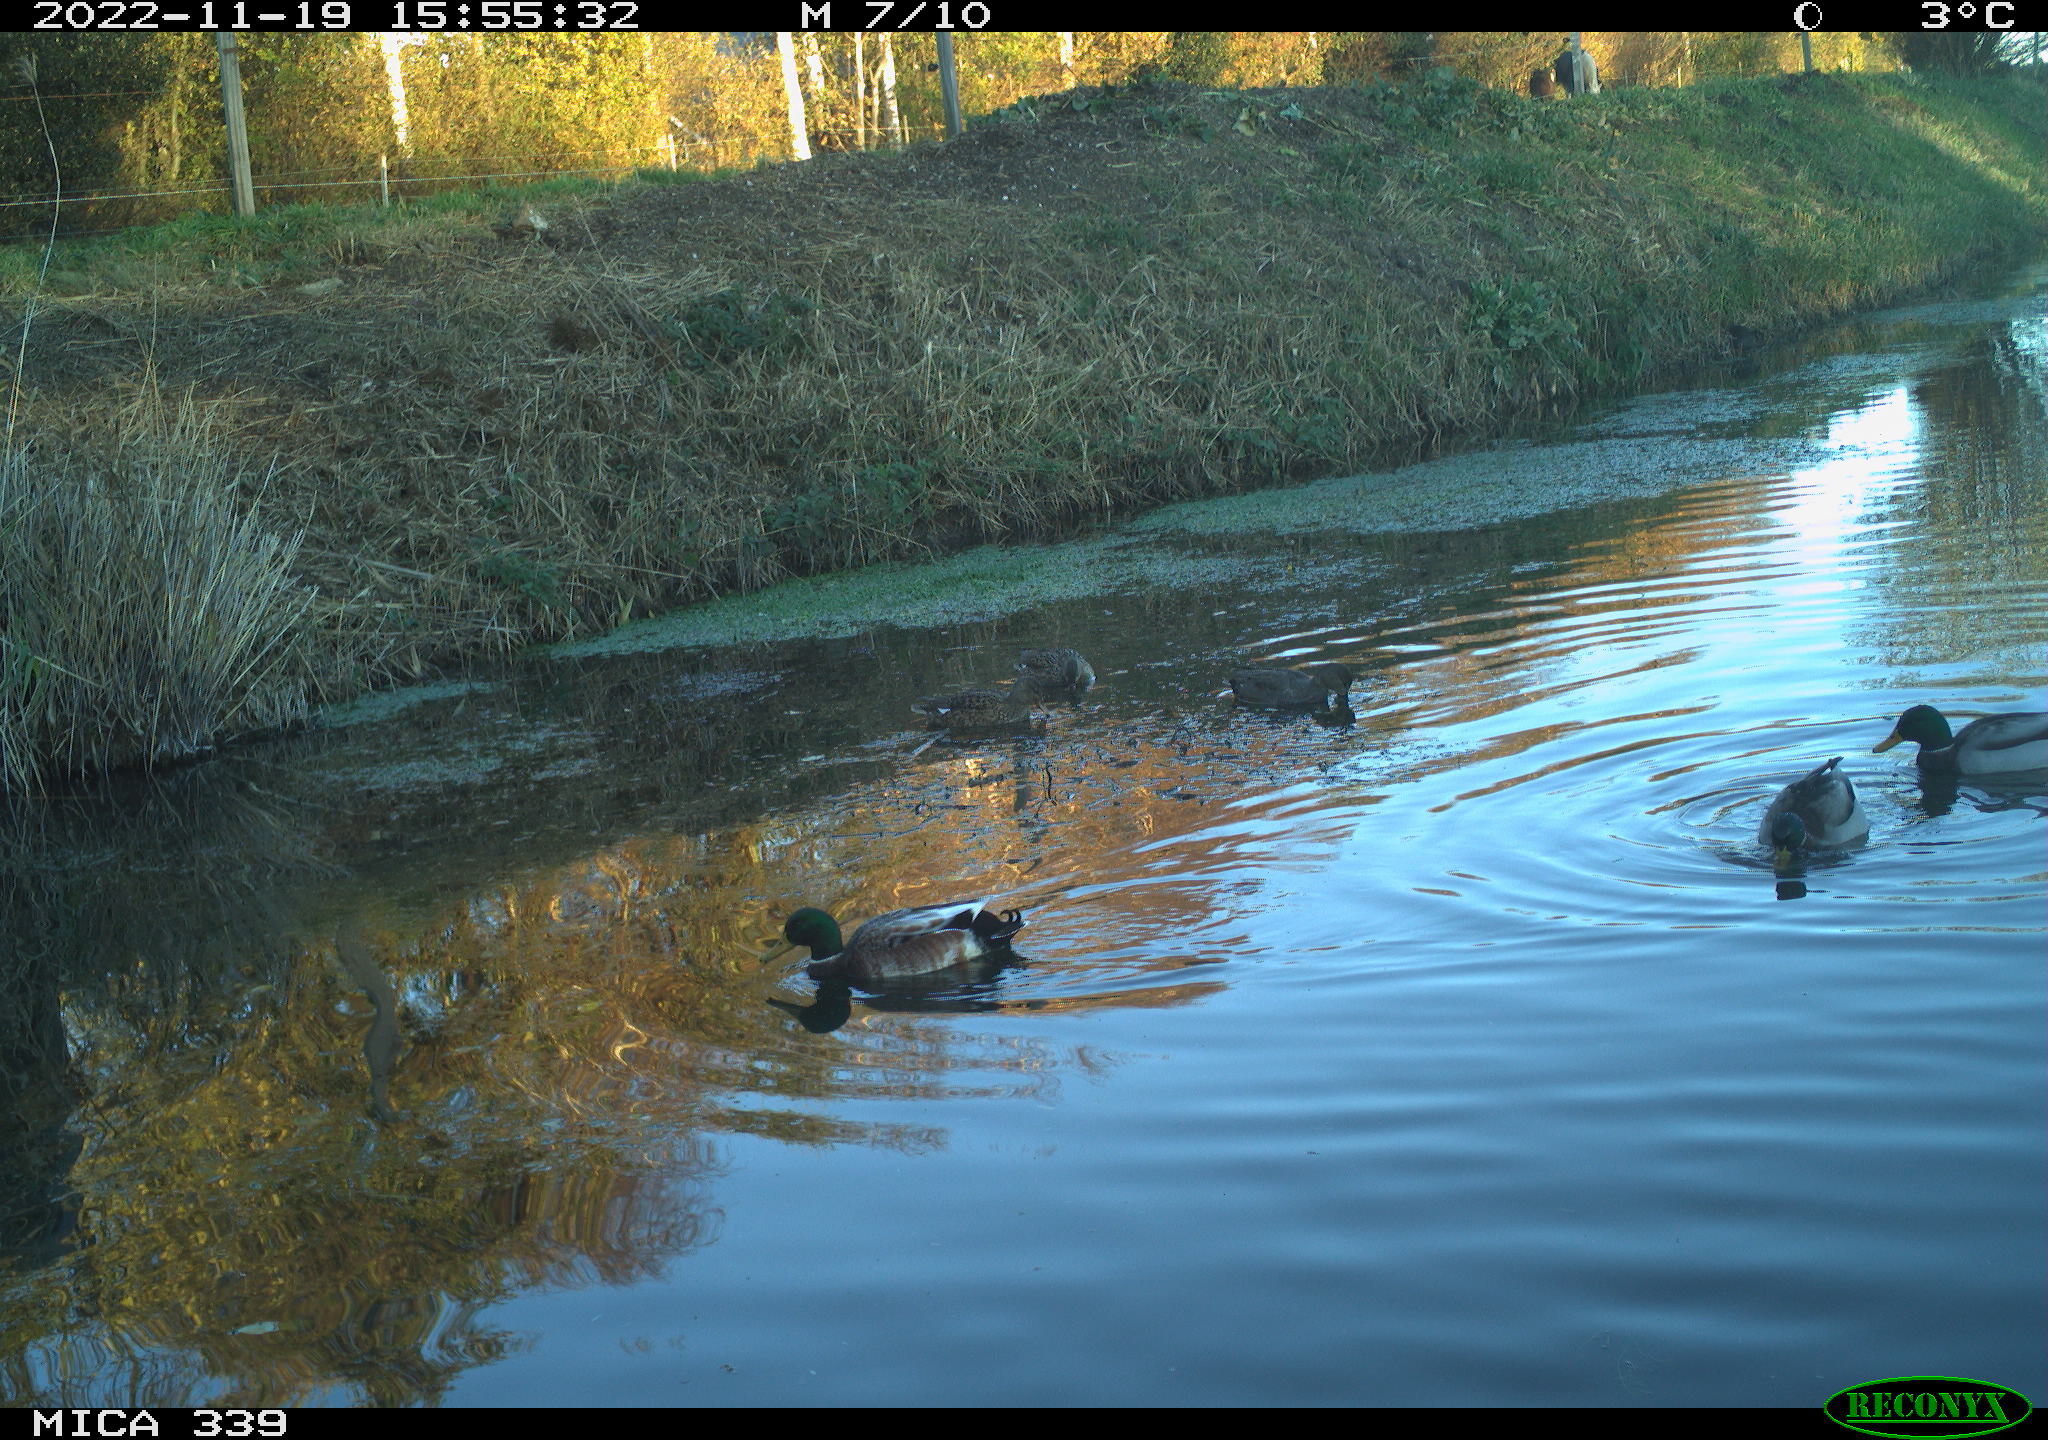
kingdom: Animalia
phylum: Chordata
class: Aves
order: Anseriformes
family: Anatidae
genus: Anas
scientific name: Anas platyrhynchos
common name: Mallard
